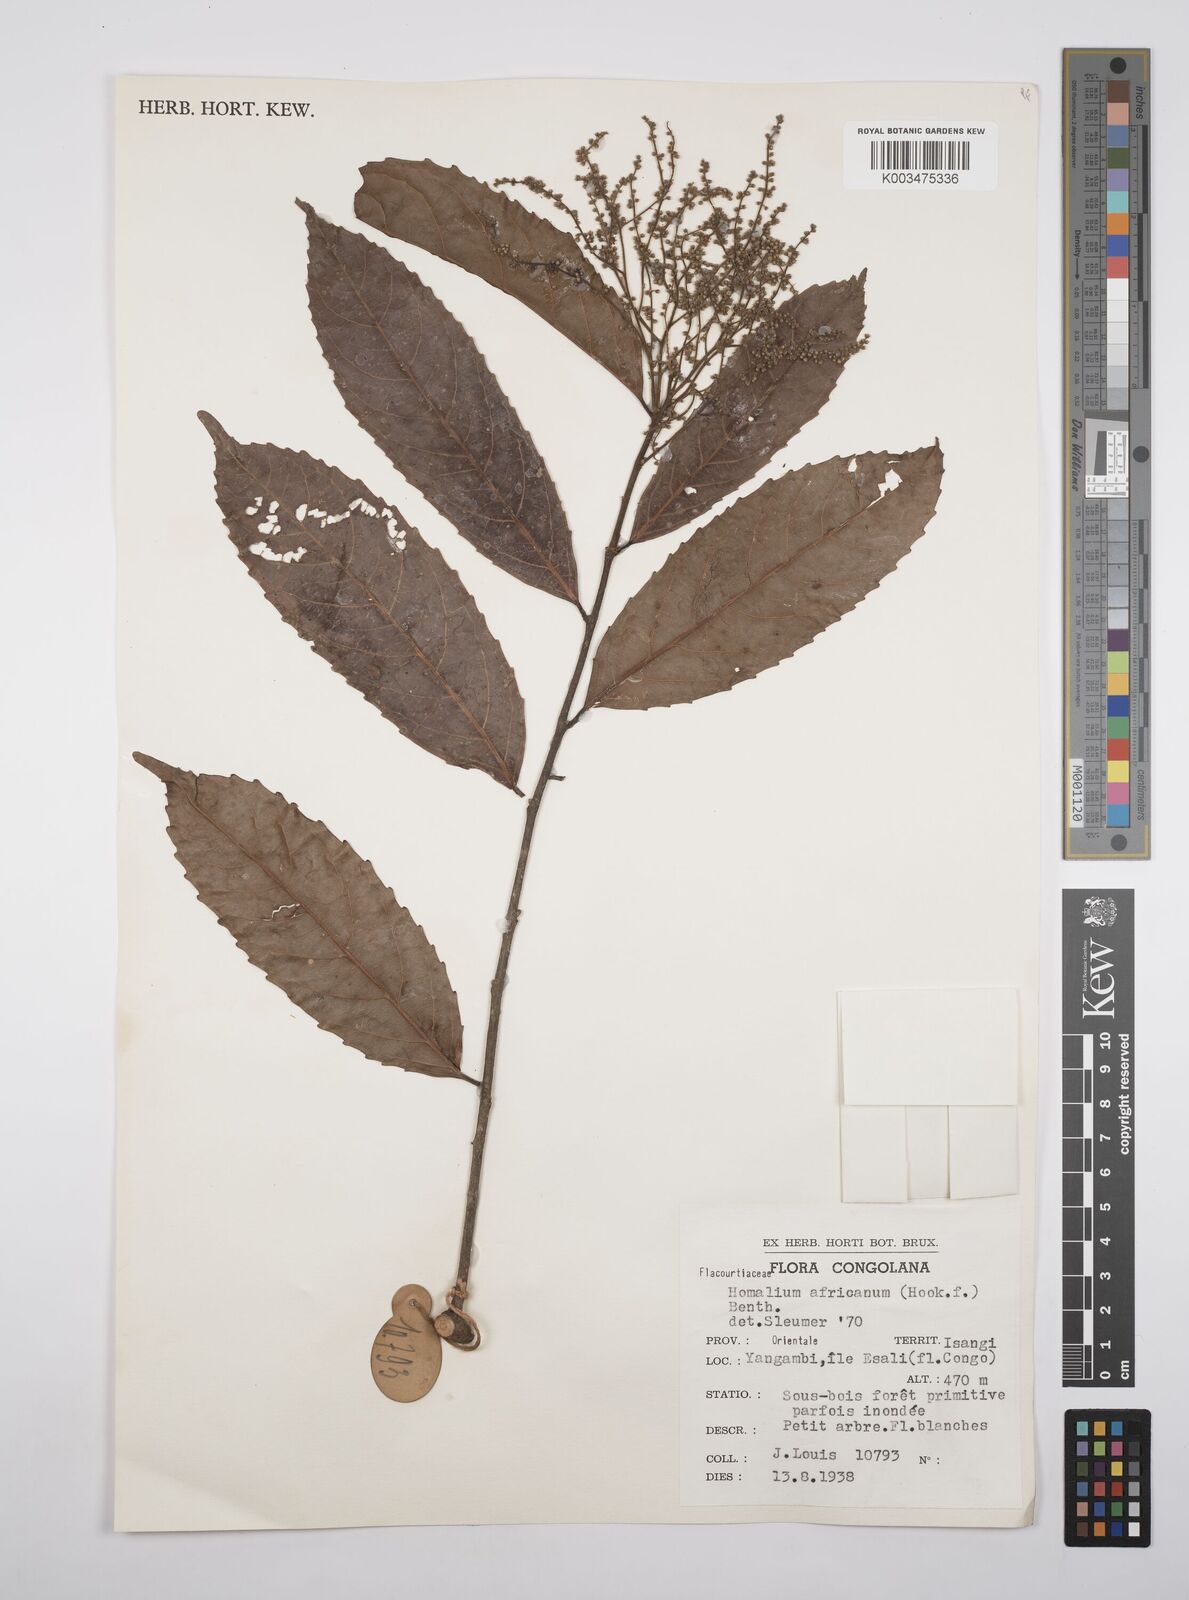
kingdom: Plantae
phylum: Tracheophyta
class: Magnoliopsida
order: Malpighiales
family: Salicaceae
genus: Homalium
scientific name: Homalium africanum
